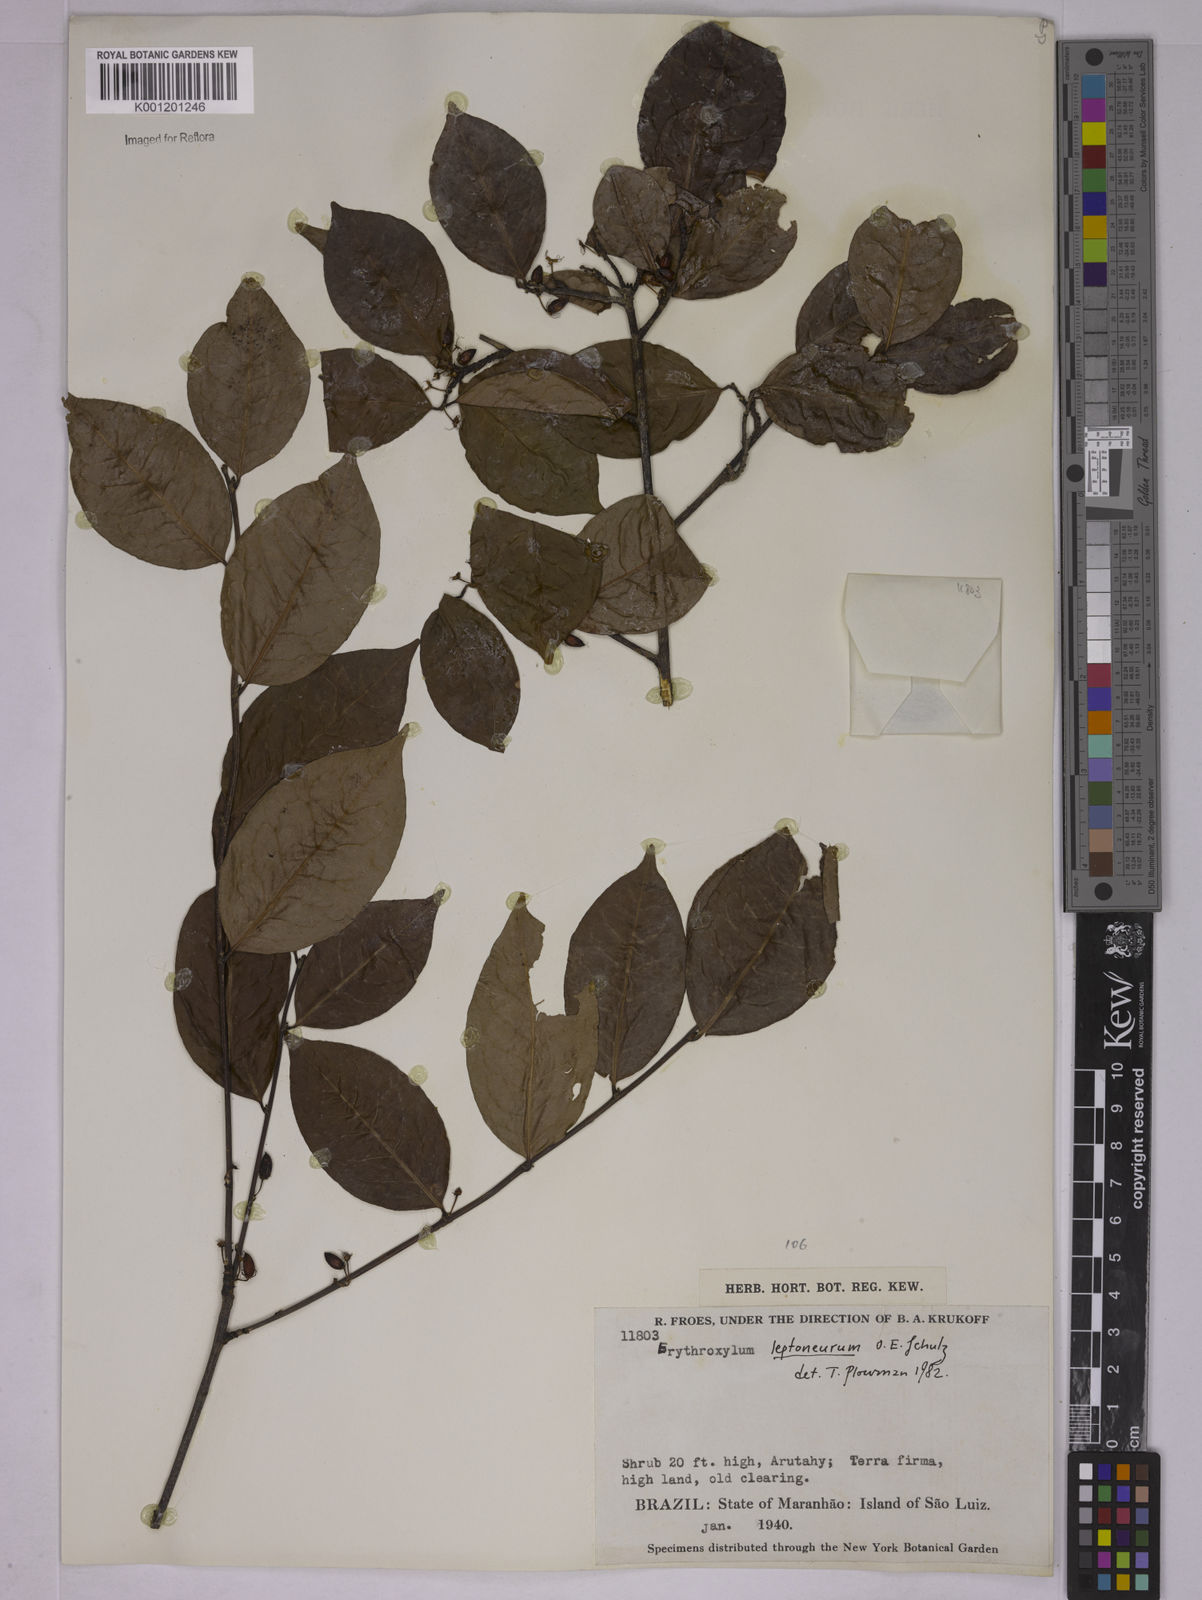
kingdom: Plantae
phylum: Tracheophyta
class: Magnoliopsida
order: Malpighiales
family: Erythroxylaceae
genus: Erythroxylum
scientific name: Erythroxylum leptoneurum
